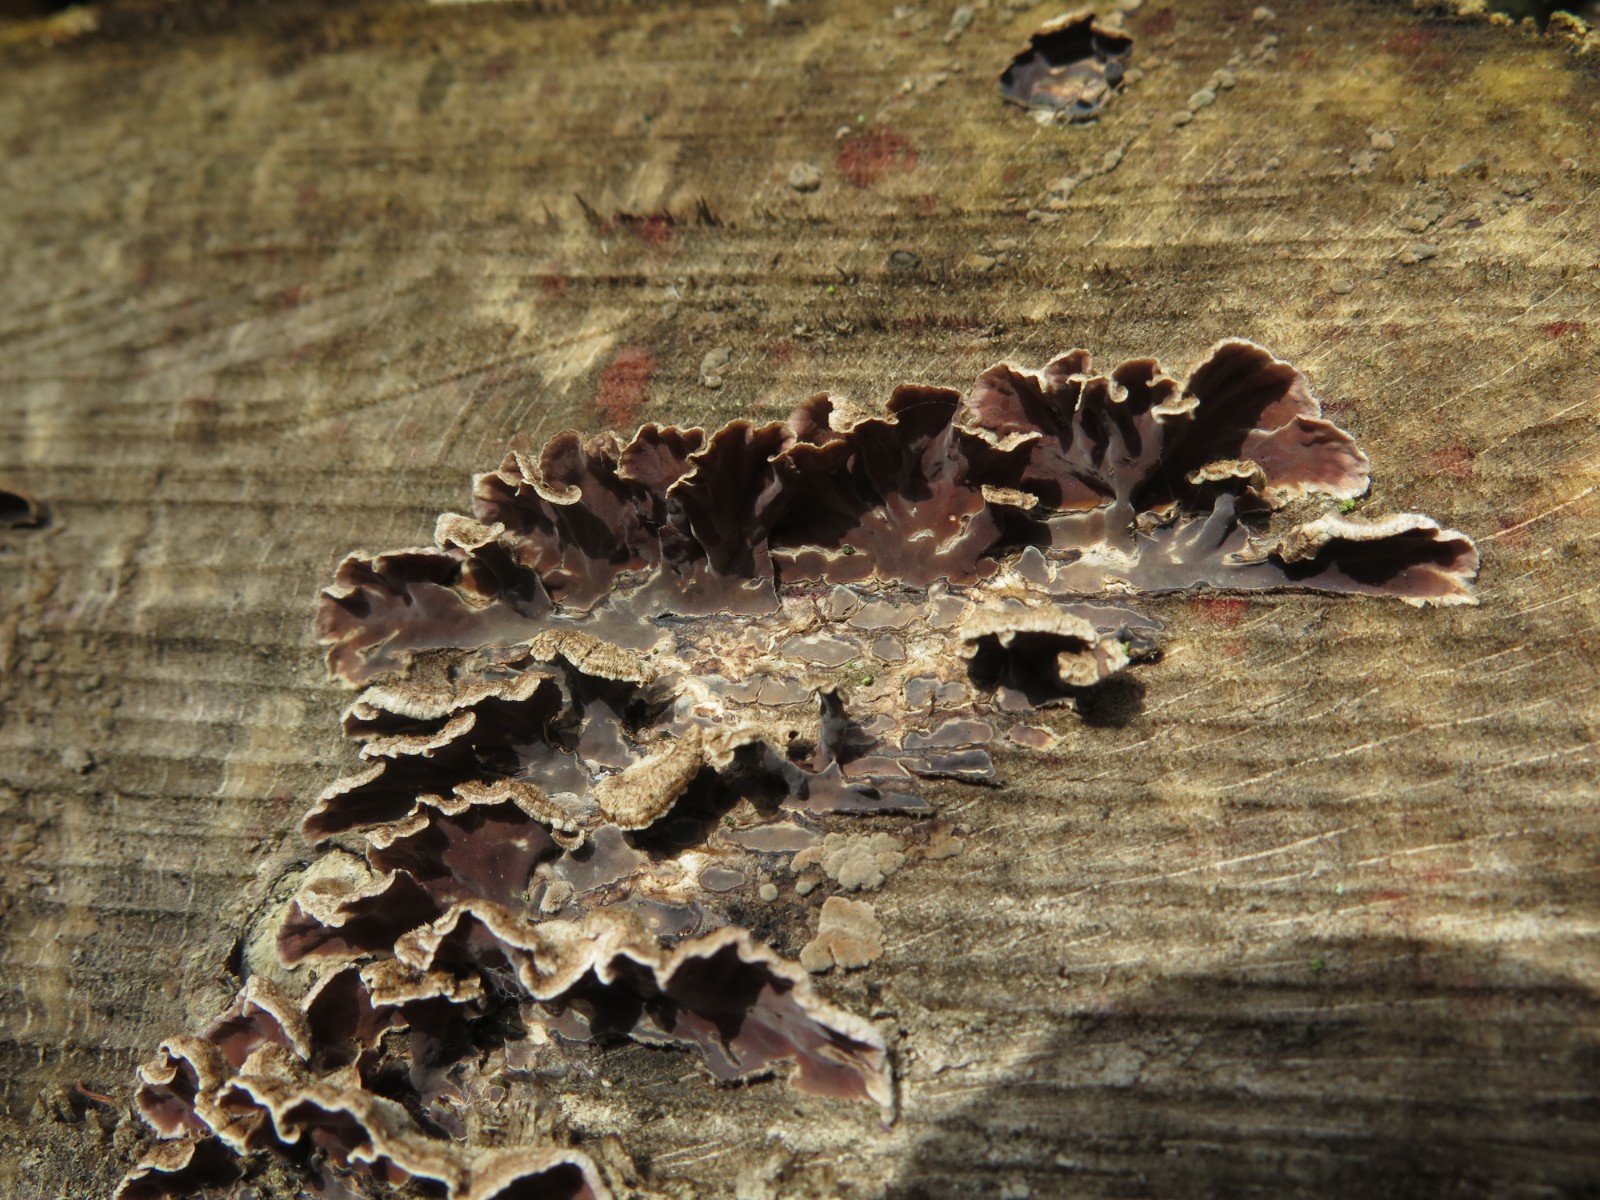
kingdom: Fungi
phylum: Basidiomycota
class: Agaricomycetes
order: Agaricales
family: Cyphellaceae
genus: Chondrostereum
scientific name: Chondrostereum purpureum
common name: purpurlædersvamp
